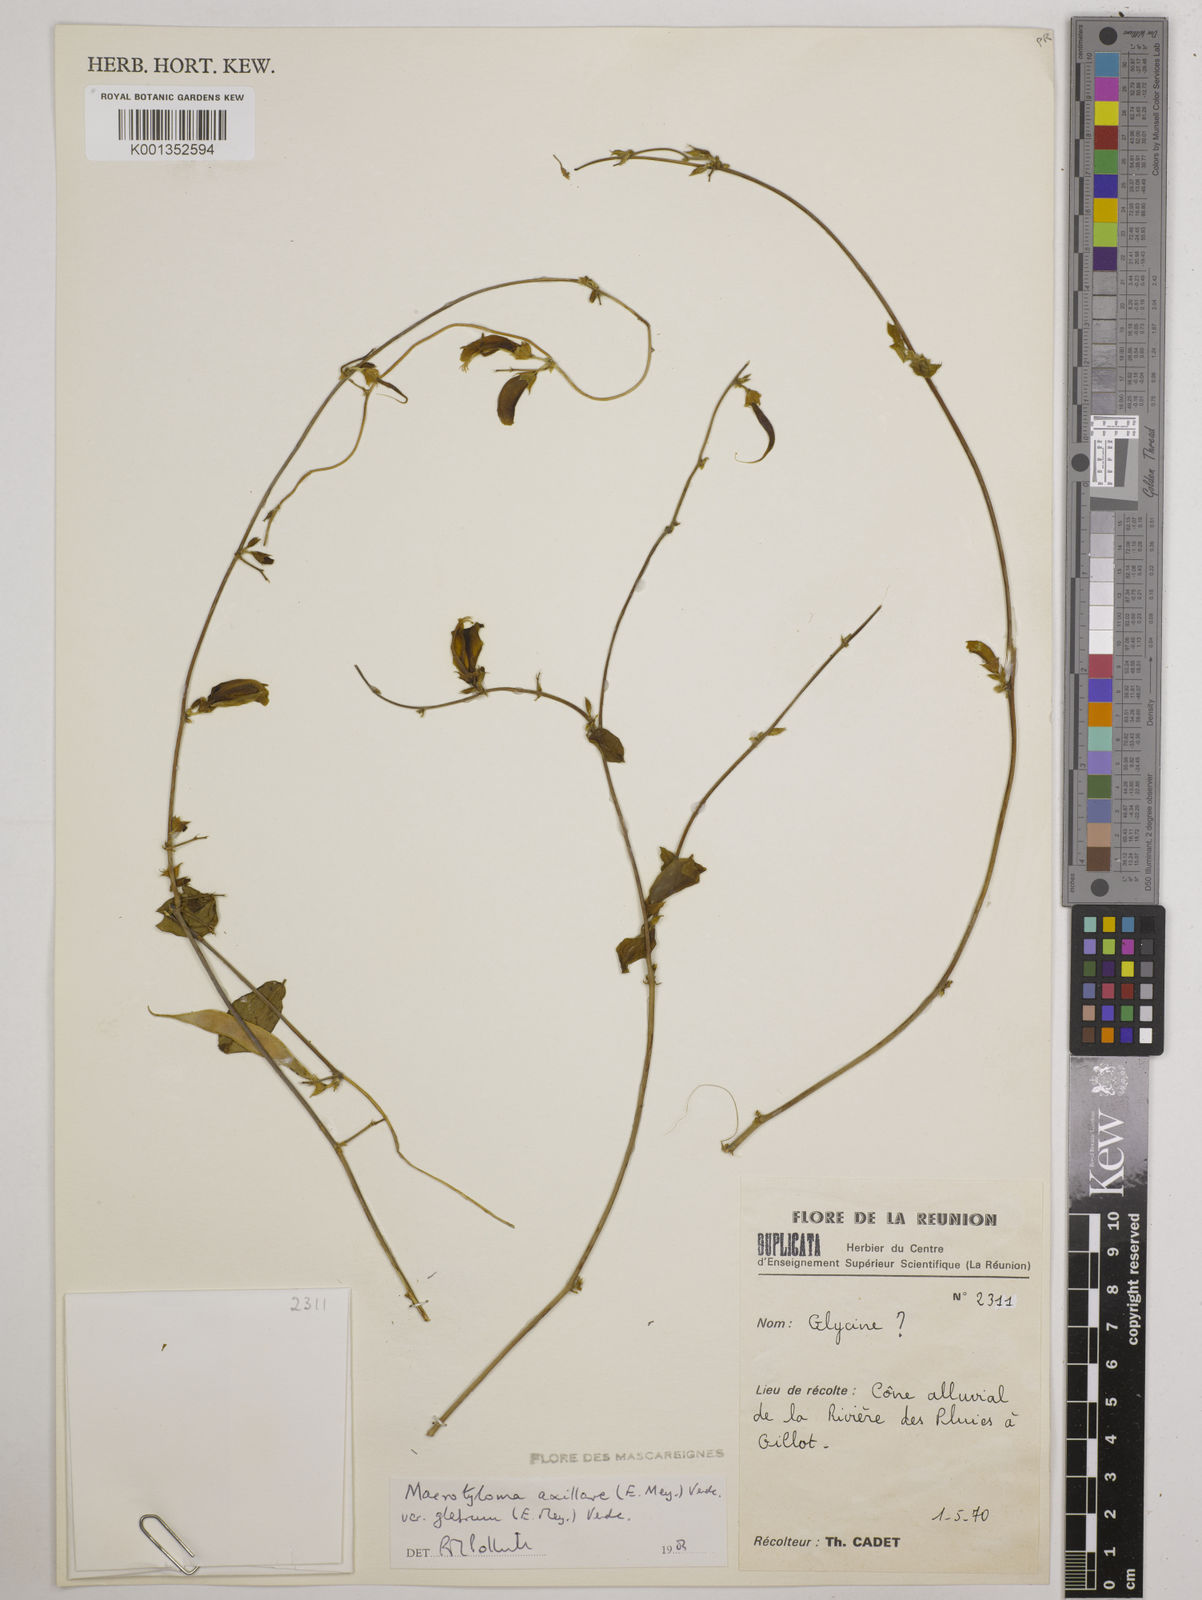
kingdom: Plantae
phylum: Tracheophyta
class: Magnoliopsida
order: Fabales
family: Fabaceae
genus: Macrotyloma
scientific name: Macrotyloma
